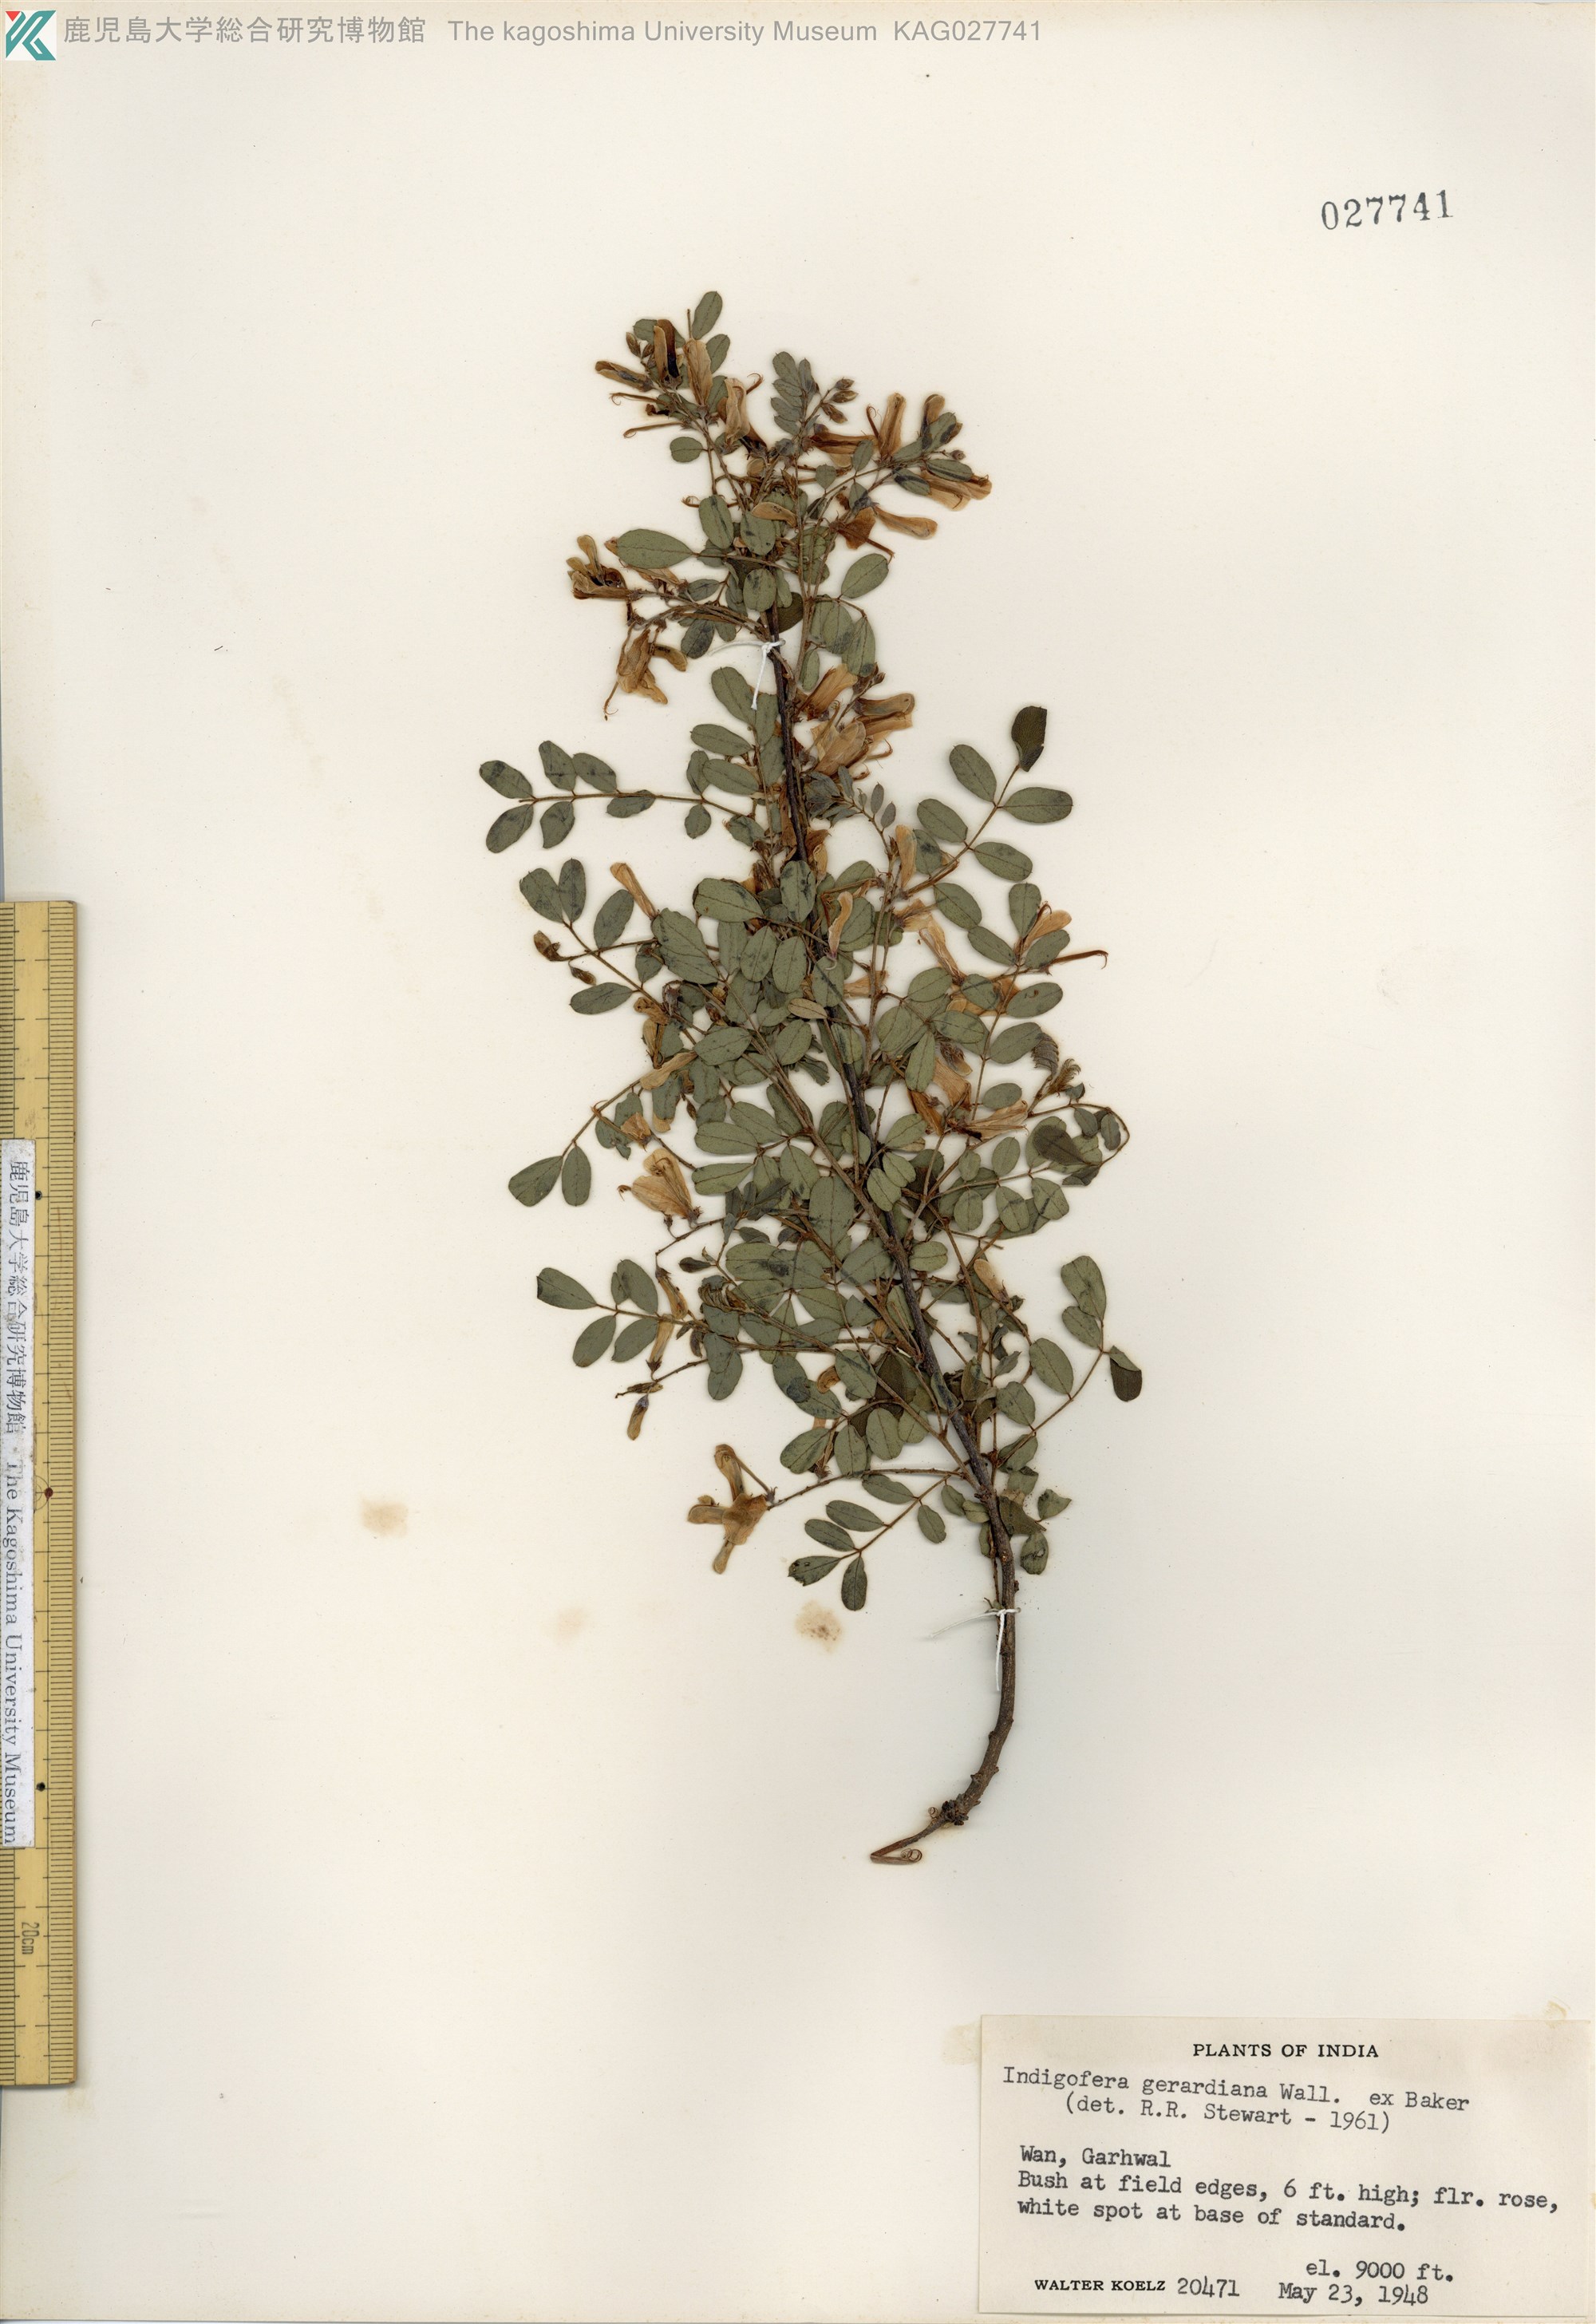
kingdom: Plantae
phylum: Tracheophyta
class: Magnoliopsida
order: Fabales
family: Fabaceae
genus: Indigofera
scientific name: Indigofera heterantha
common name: Himalayan indigo
